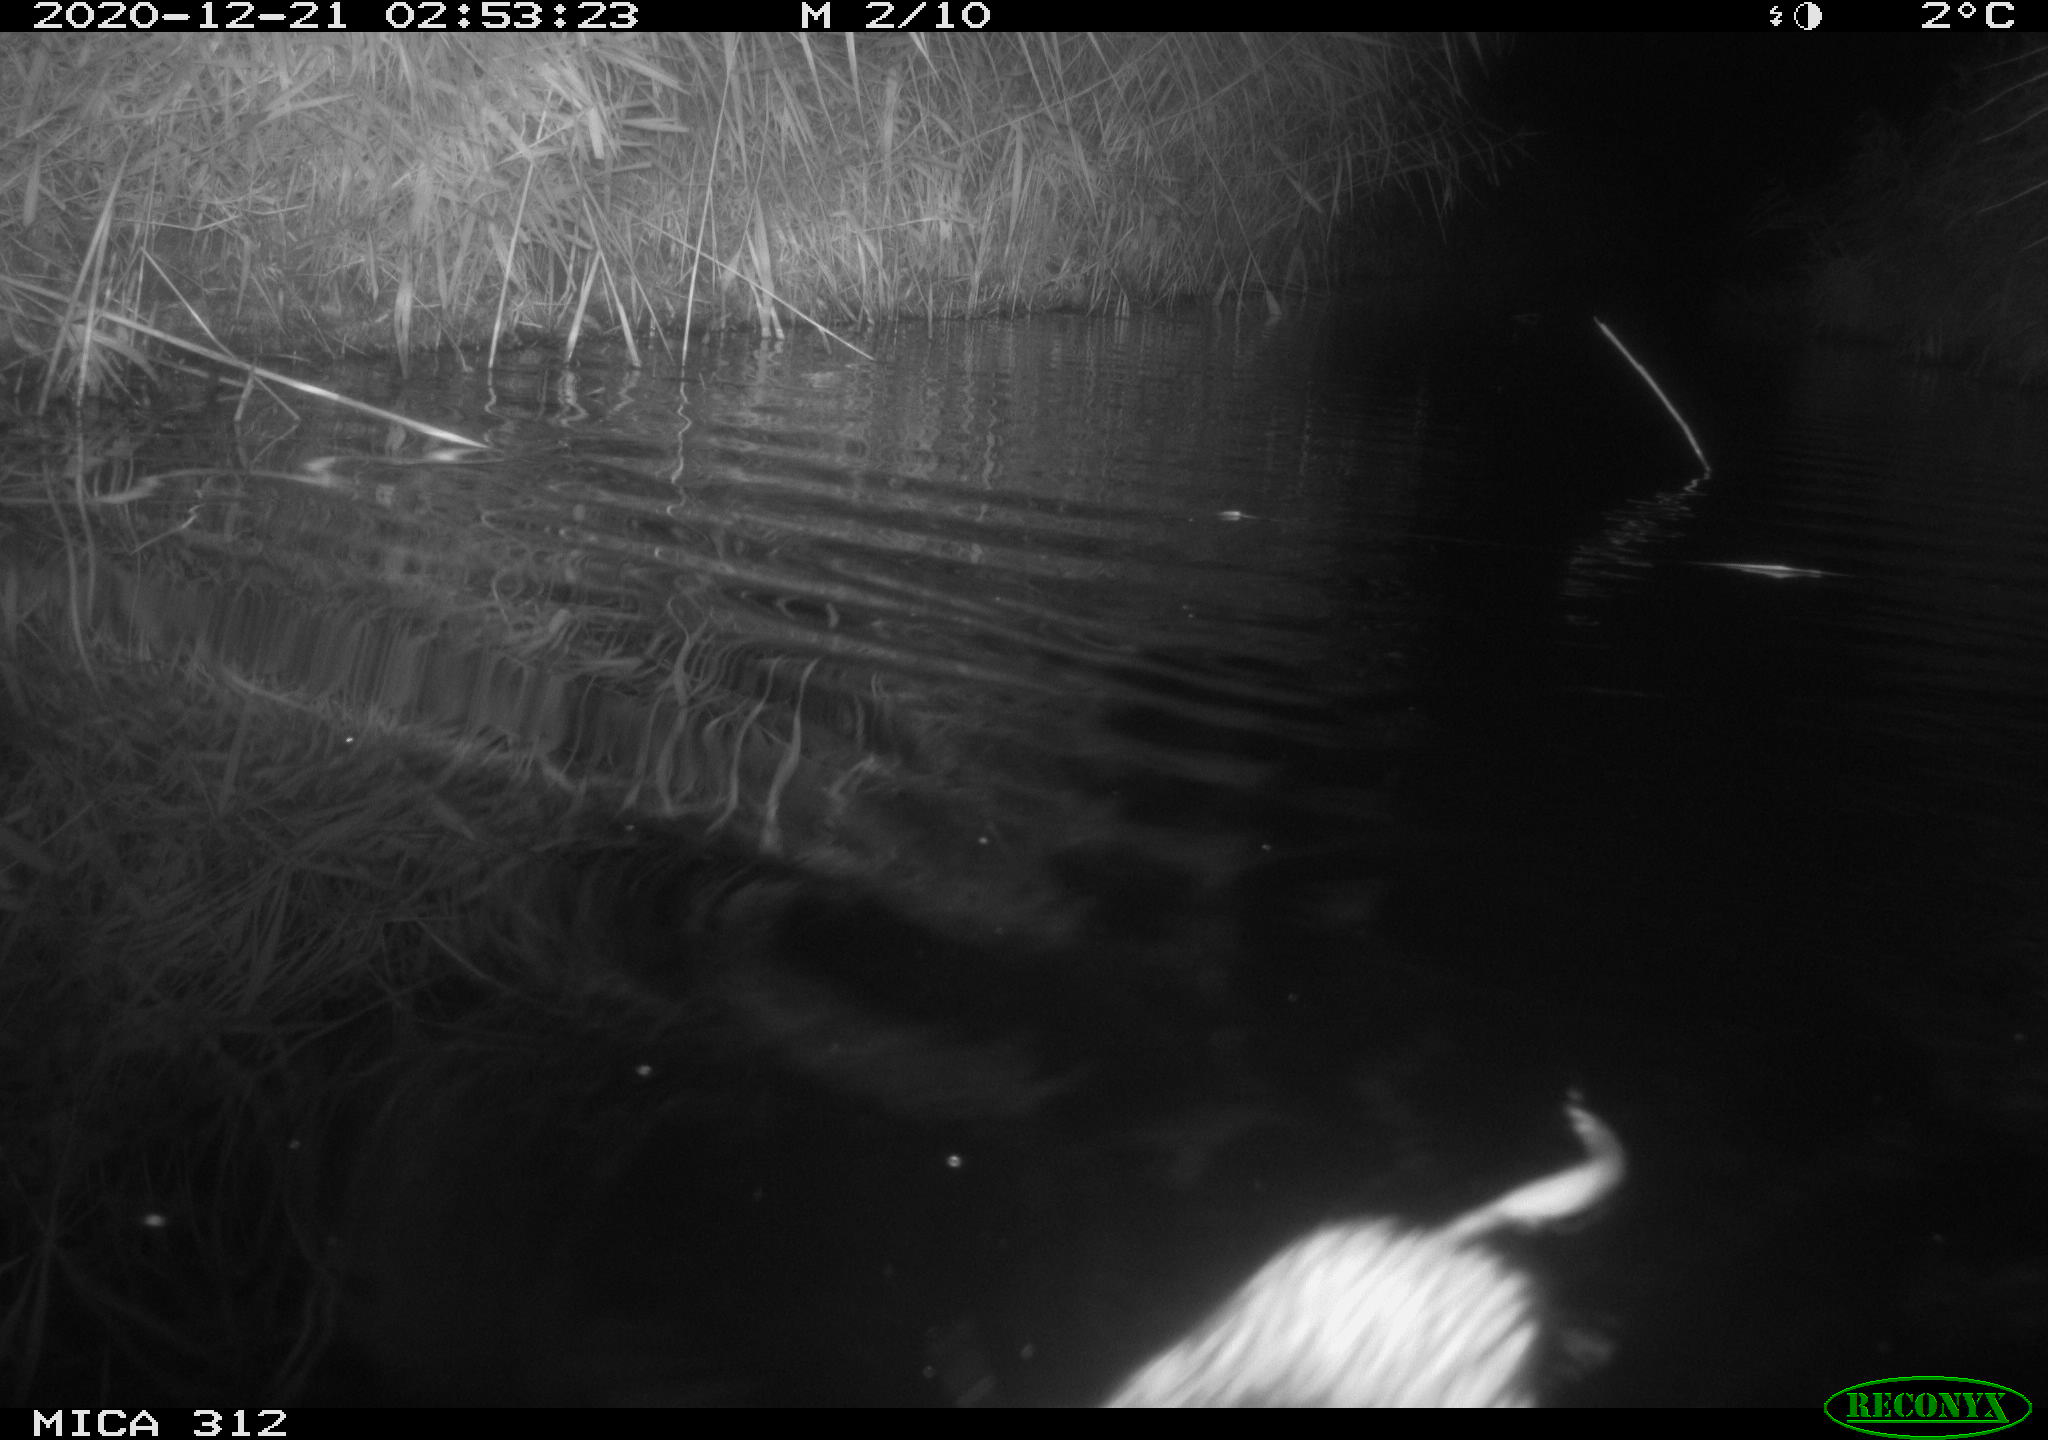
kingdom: Animalia
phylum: Chordata
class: Mammalia
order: Rodentia
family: Cricetidae
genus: Ondatra
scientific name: Ondatra zibethicus
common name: Muskrat
